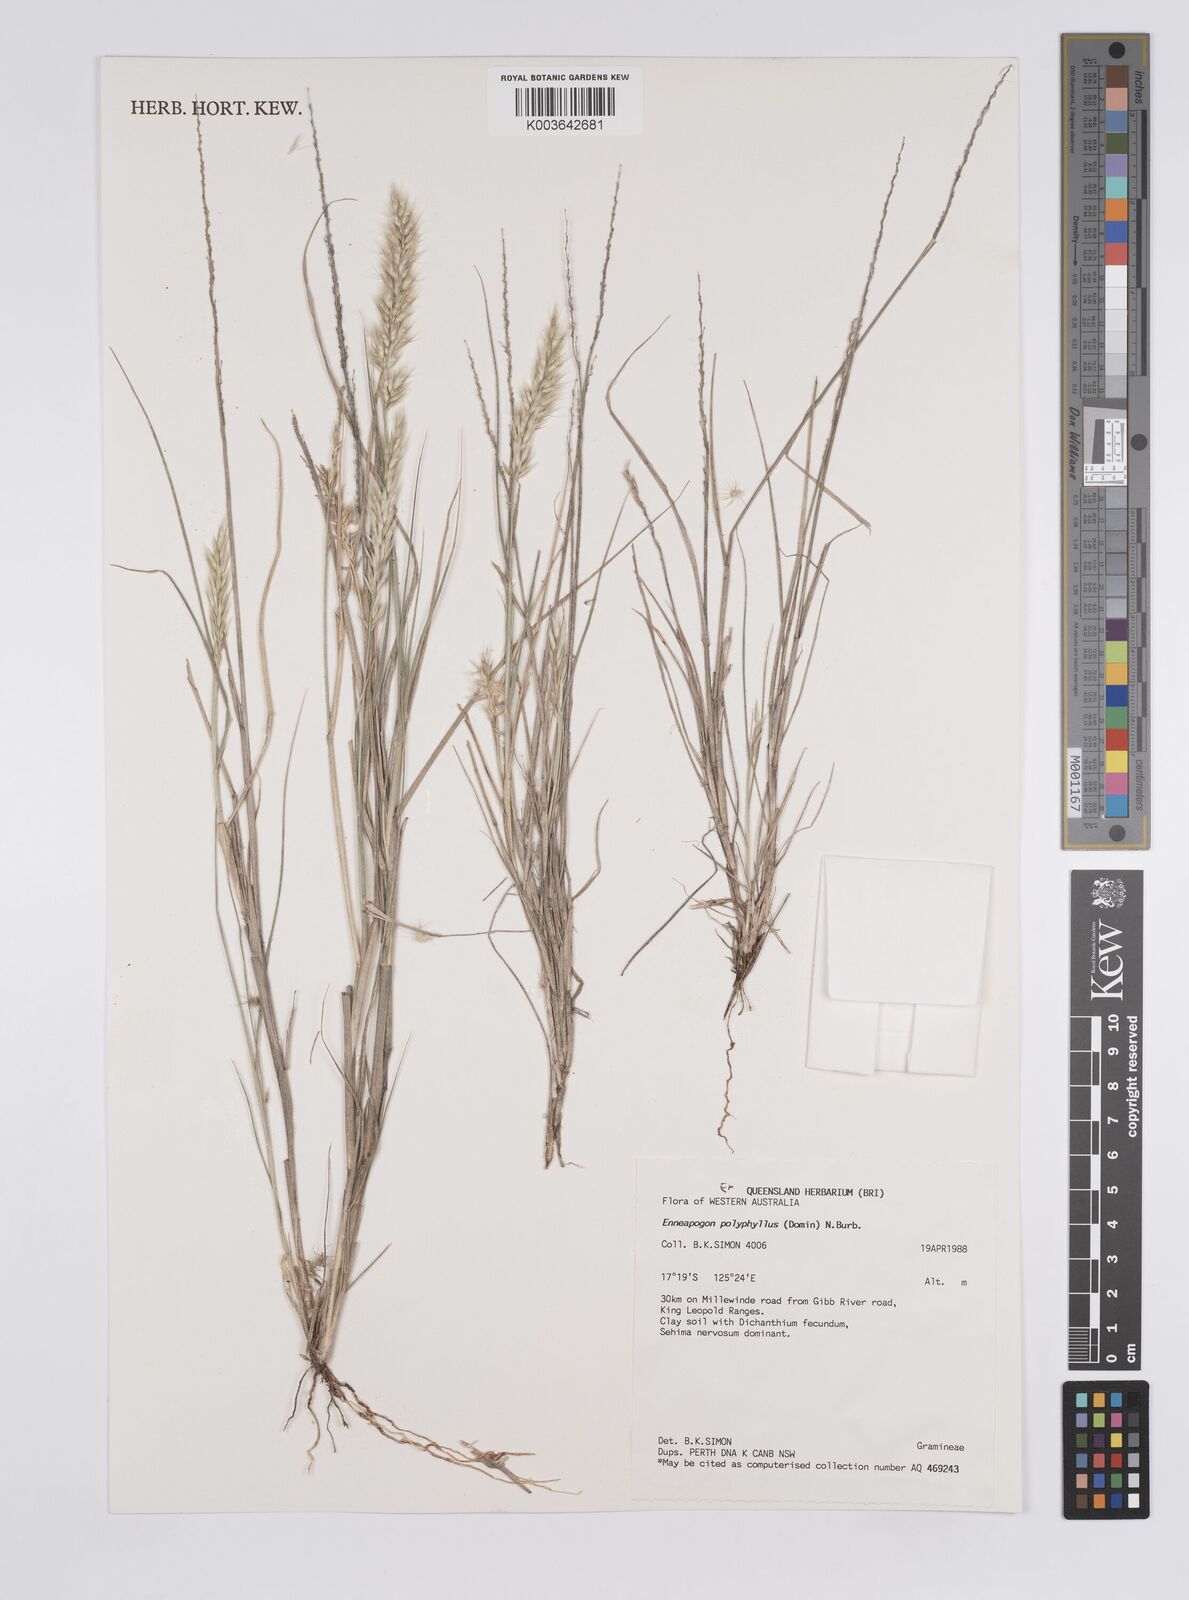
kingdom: Plantae
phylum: Tracheophyta
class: Liliopsida
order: Poales
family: Poaceae
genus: Enneapogon
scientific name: Enneapogon polyphyllus
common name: Leafy nineawn
